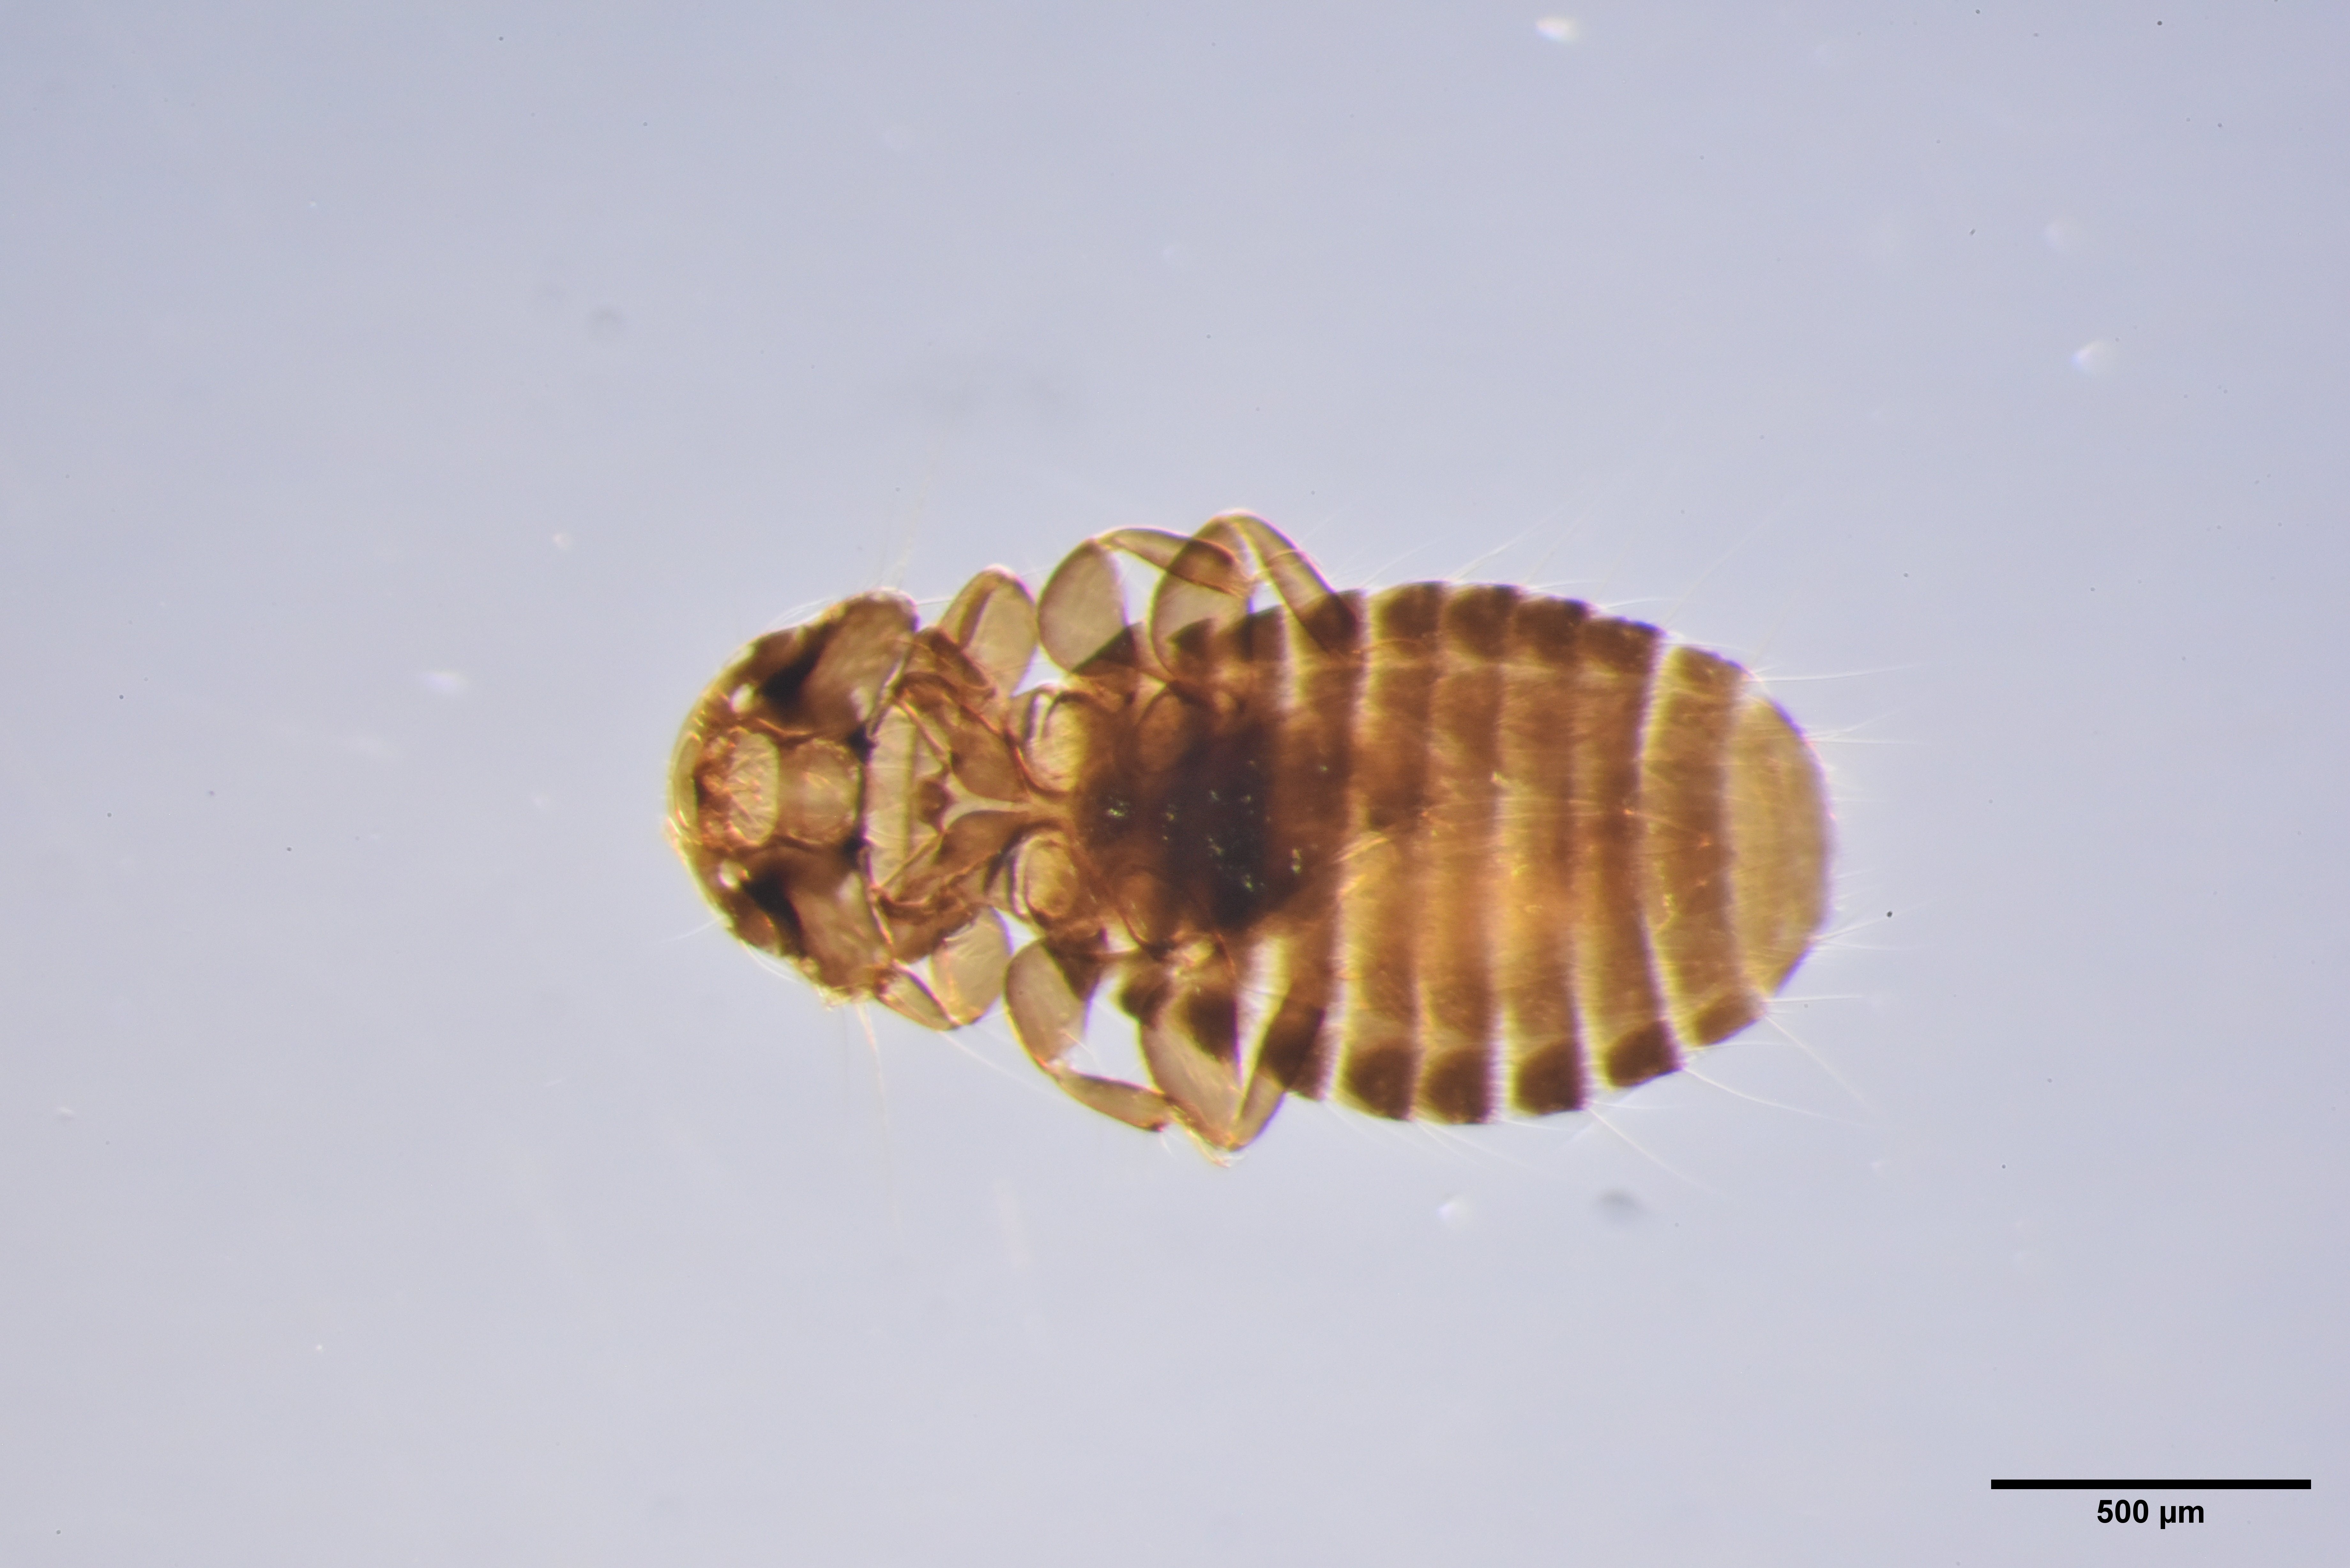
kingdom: Animalia
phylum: Arthropoda
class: Insecta
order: Psocodea
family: Ancistronidae
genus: Austromenopon
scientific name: Austromenopon transversum
